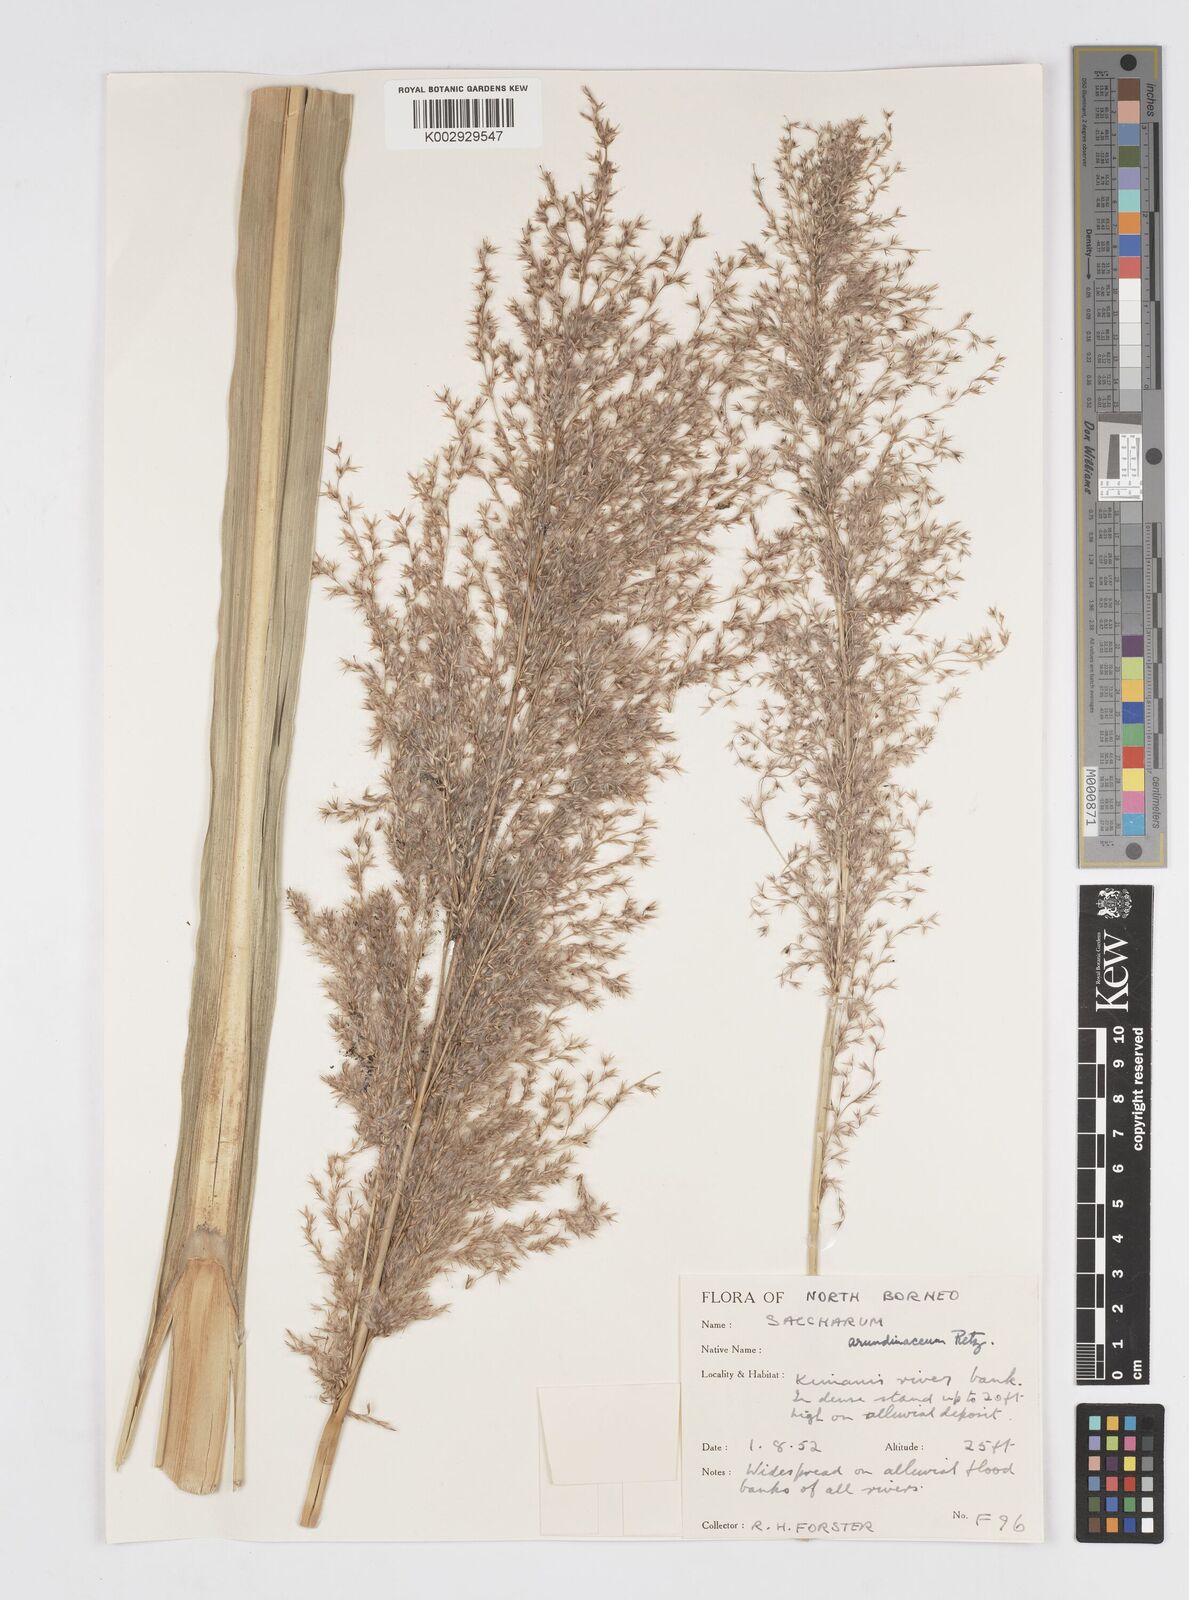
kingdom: Plantae
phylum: Tracheophyta
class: Liliopsida
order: Poales
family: Poaceae
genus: Tripidium
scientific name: Tripidium arundinaceum
